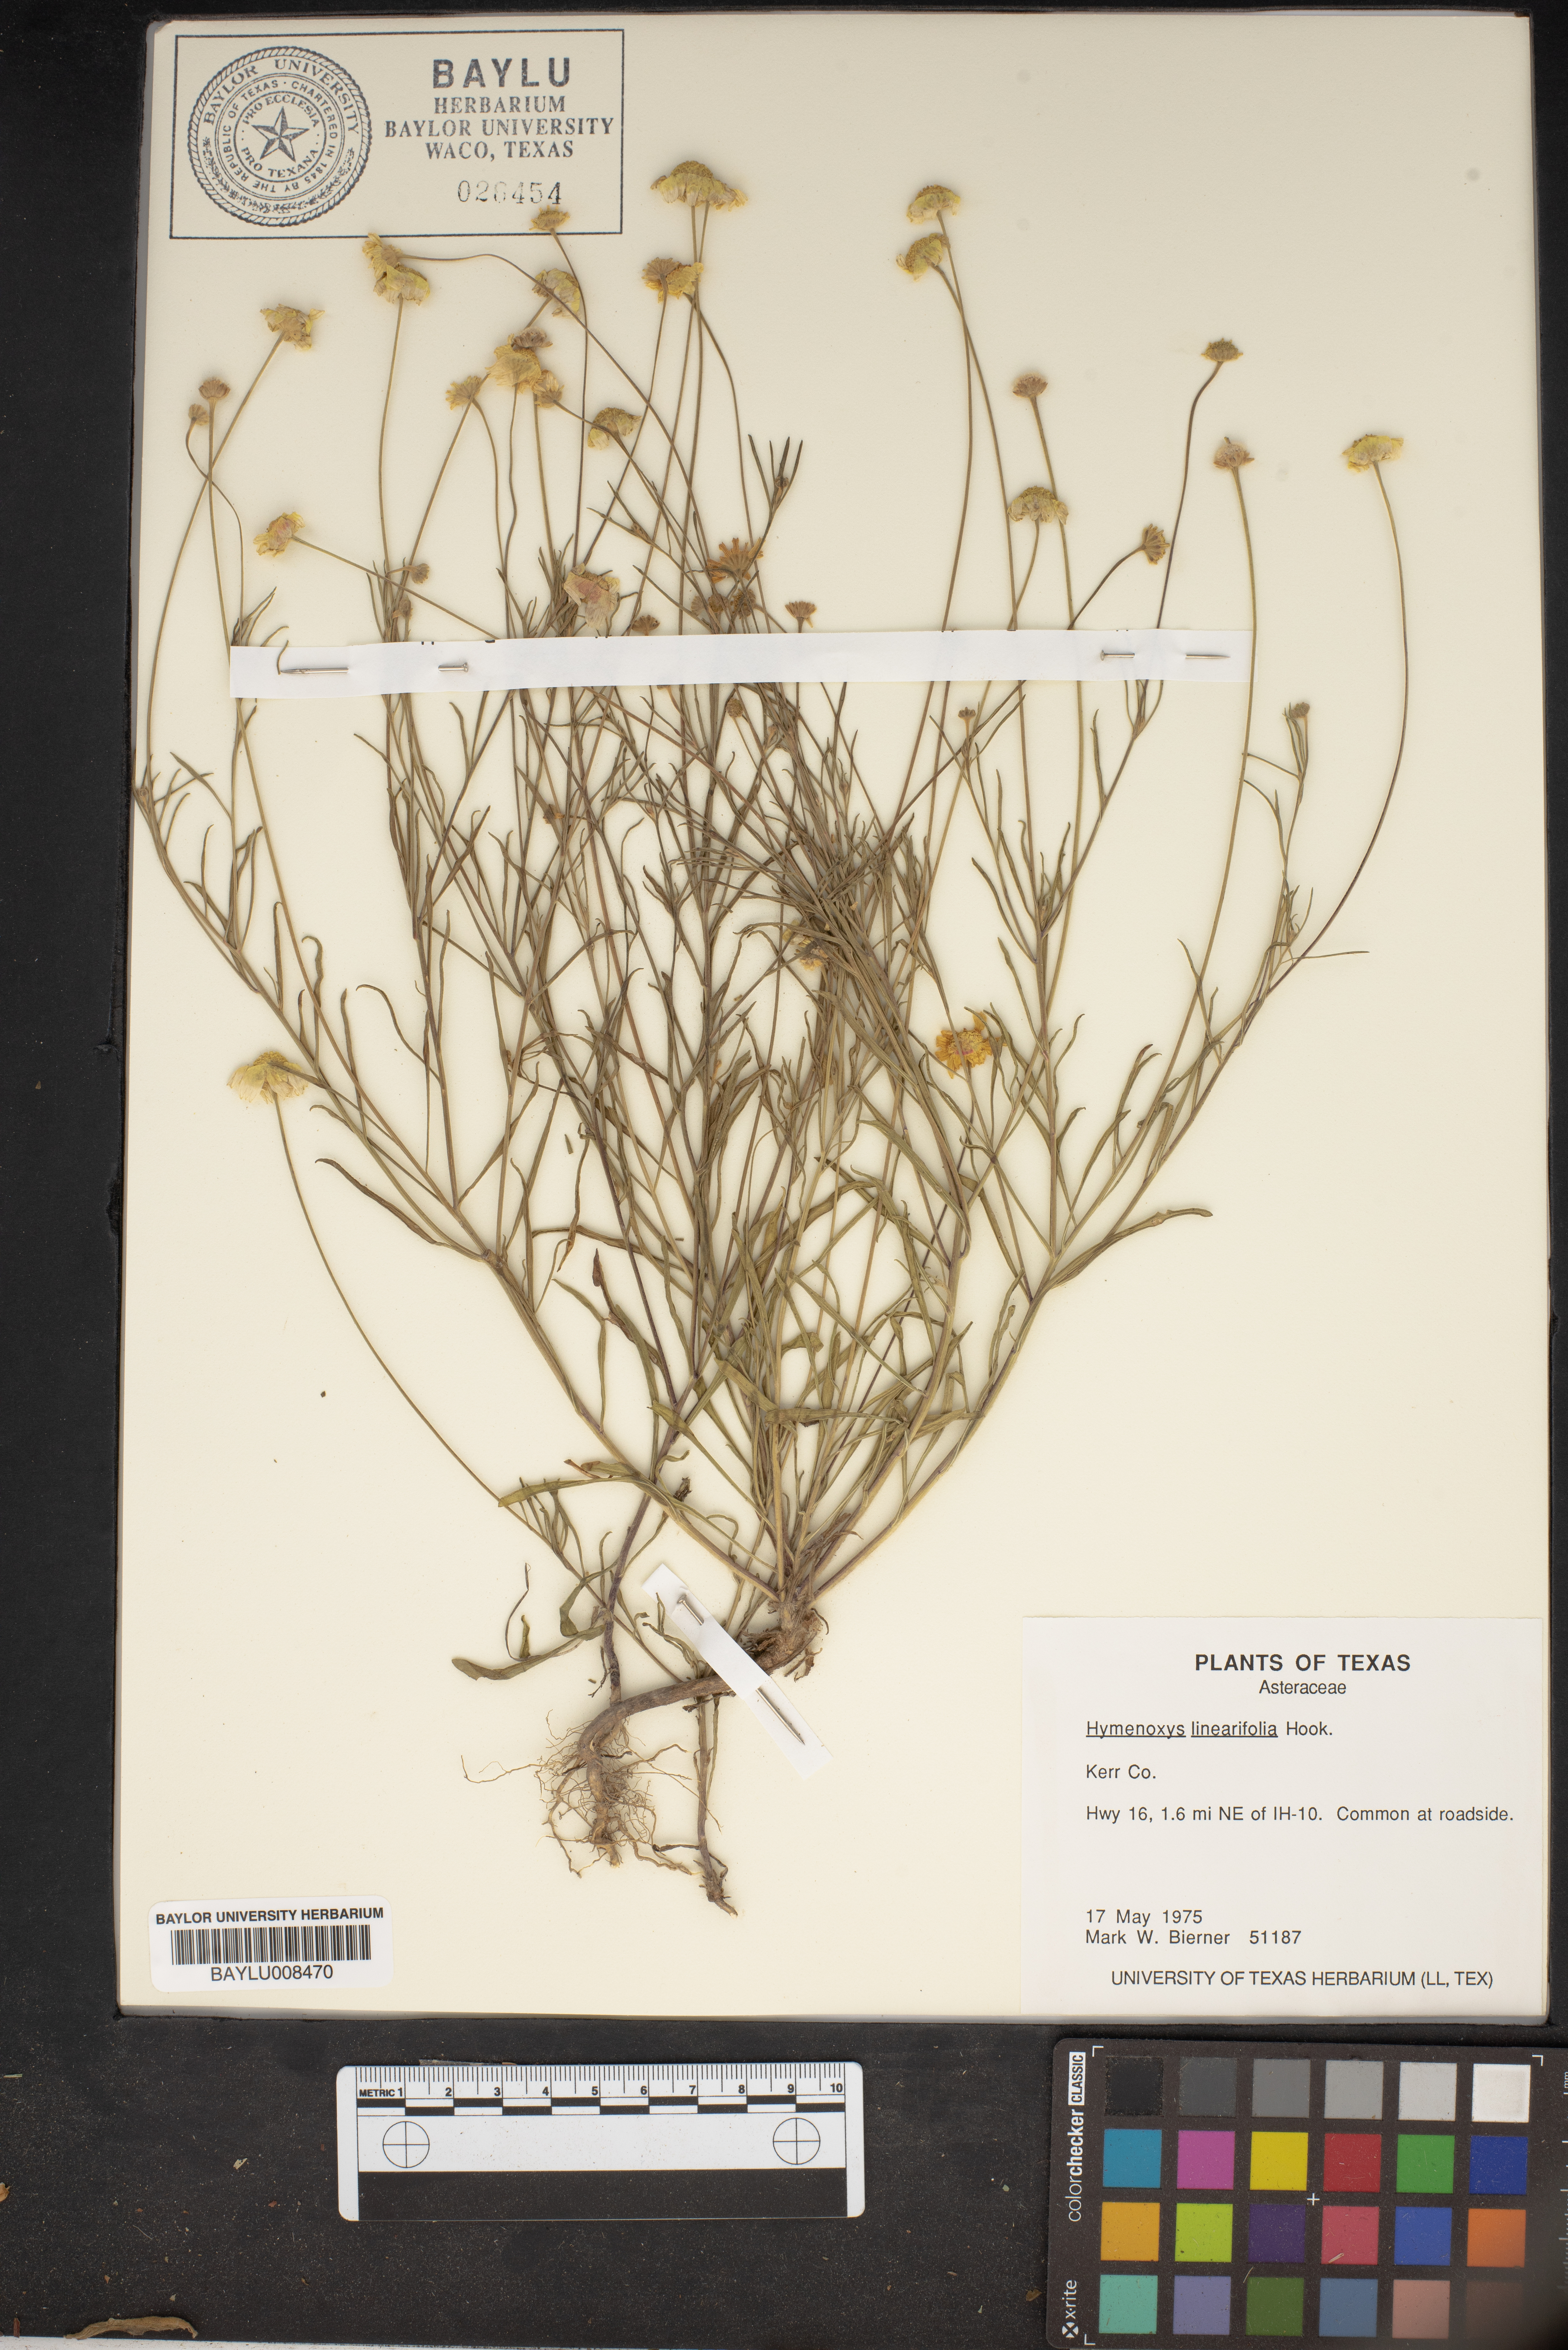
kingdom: Plantae
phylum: Tracheophyta
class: Magnoliopsida
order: Asterales
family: Asteraceae
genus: Tetraneuris
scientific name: Tetraneuris linearifolia
